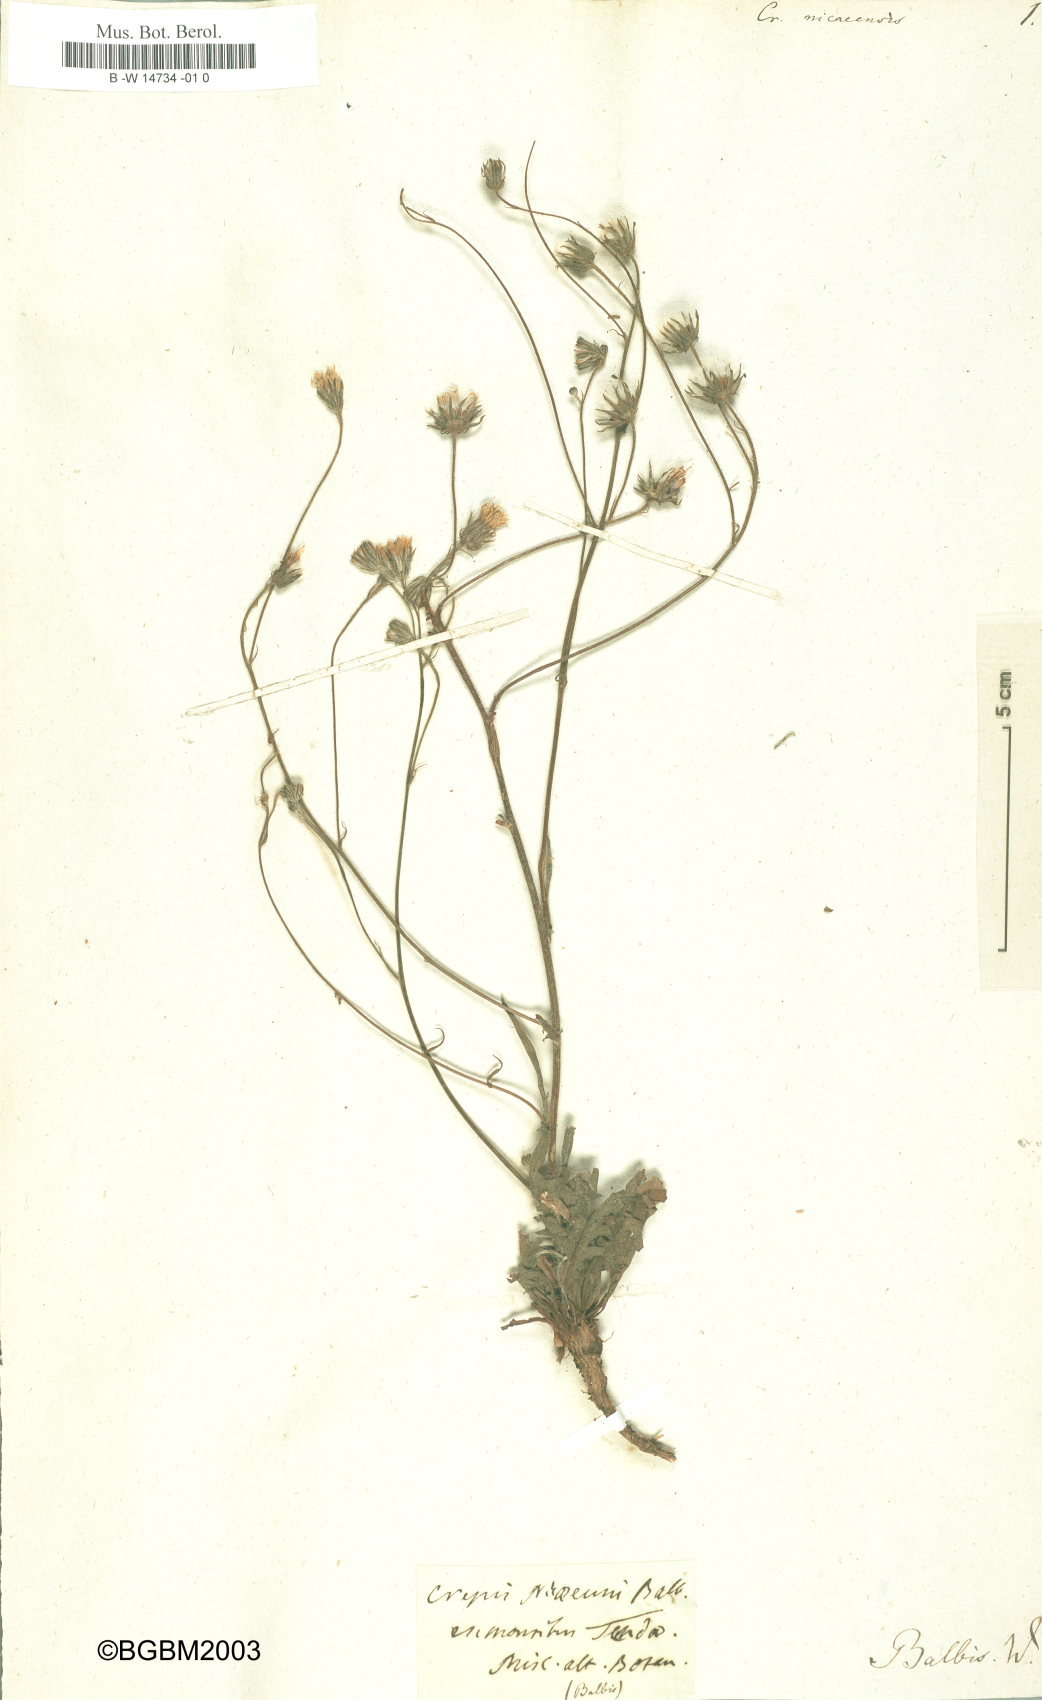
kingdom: Plantae
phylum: Tracheophyta
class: Magnoliopsida
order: Asterales
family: Asteraceae
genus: Crepis
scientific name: Crepis nicaeensis
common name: Turkish hawksbeard
